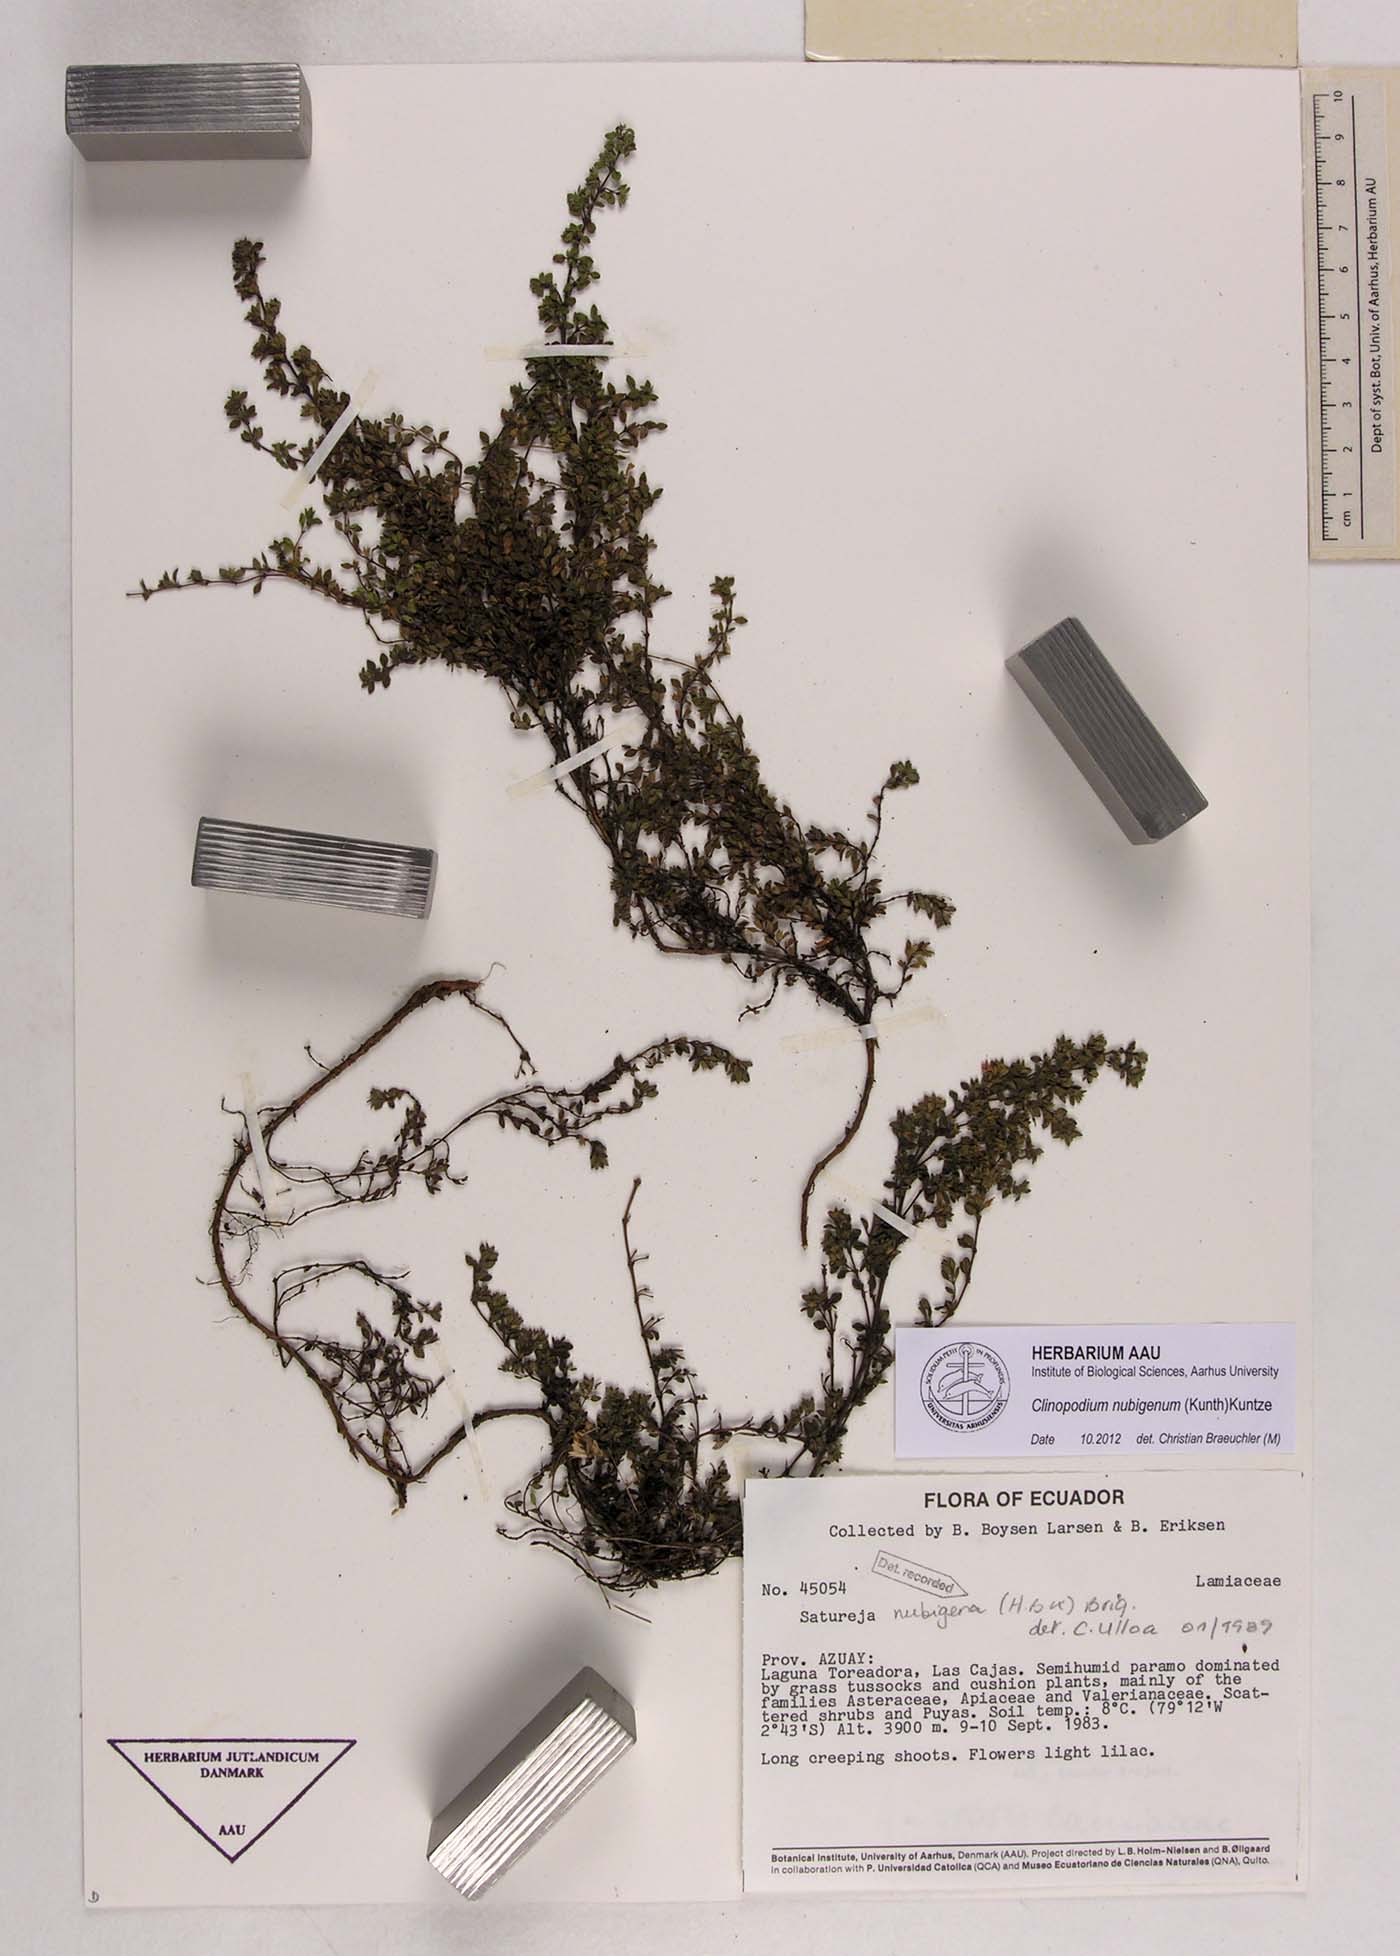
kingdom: Plantae
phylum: Tracheophyta
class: Magnoliopsida
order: Lamiales
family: Lamiaceae
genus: Clinopodium
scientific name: Clinopodium nubigenum
